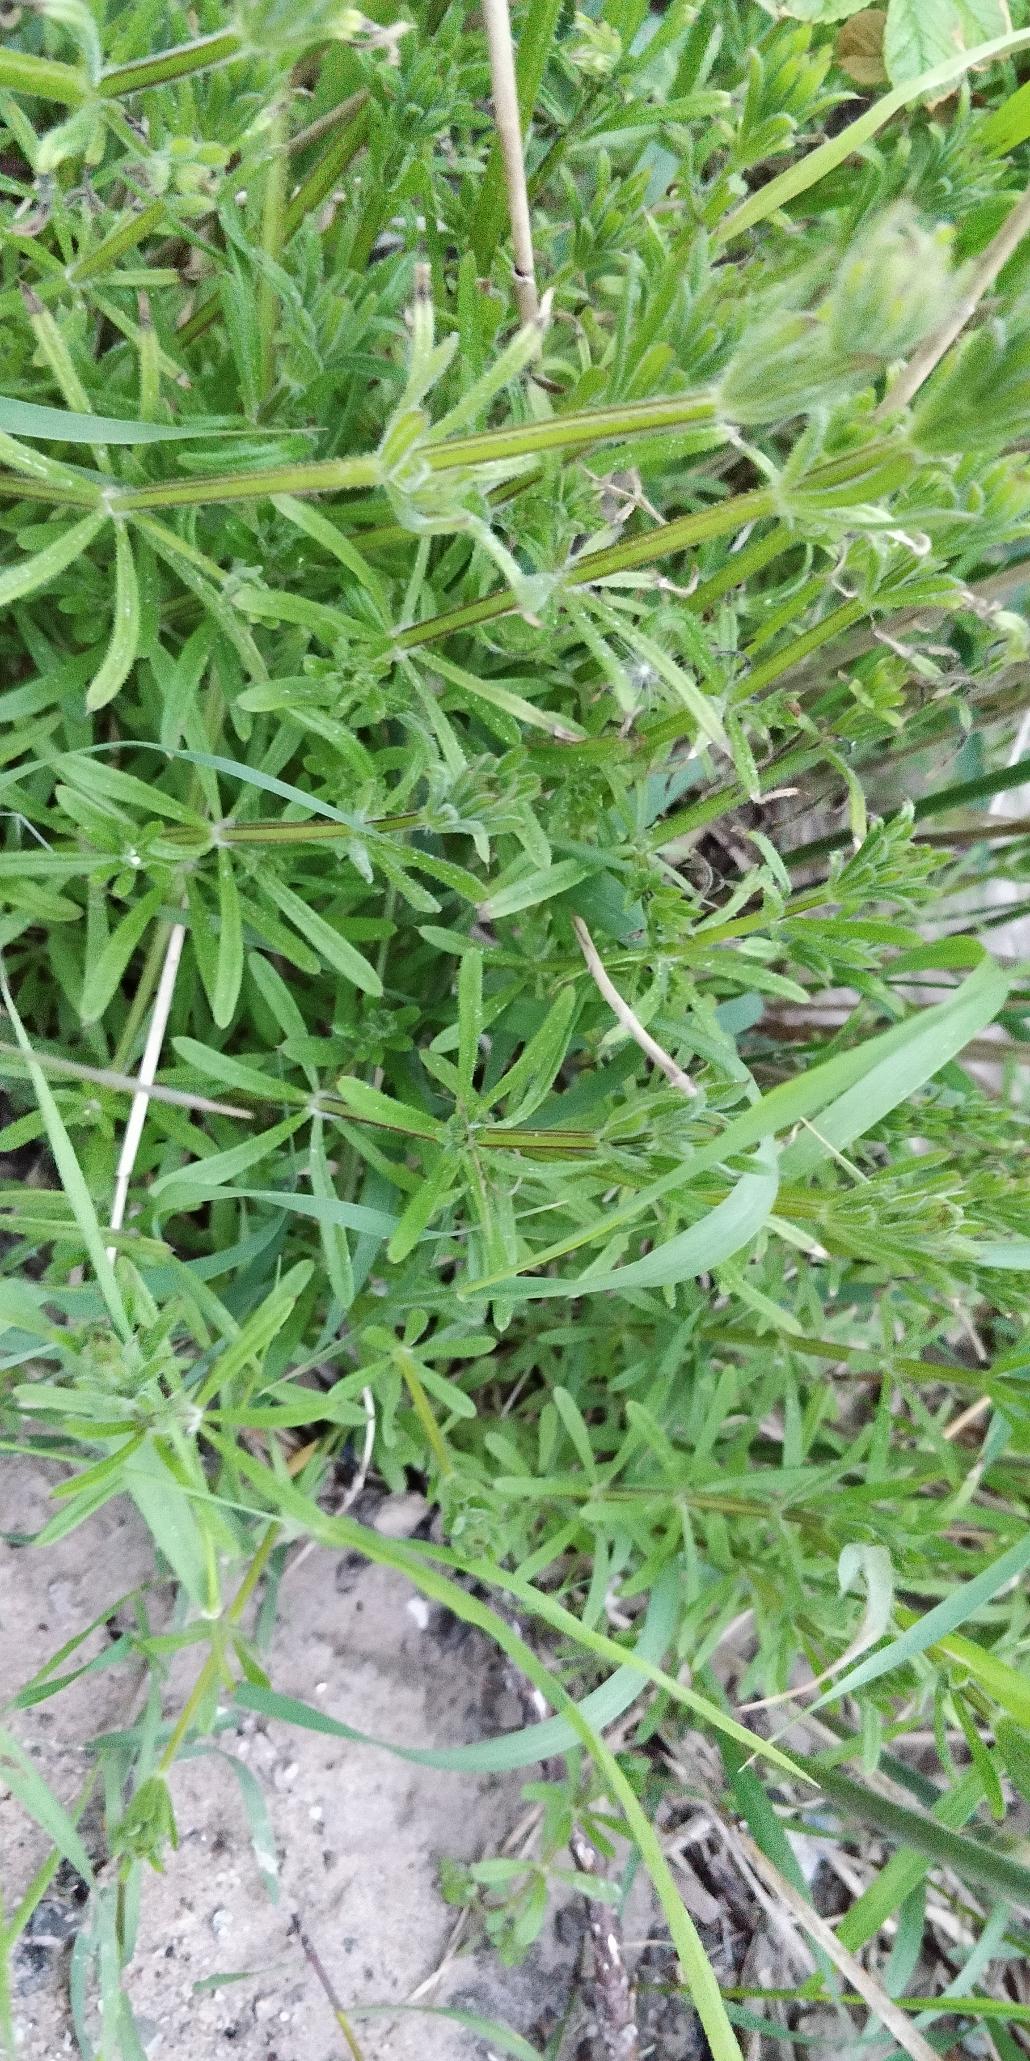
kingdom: Plantae
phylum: Tracheophyta
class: Magnoliopsida
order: Gentianales
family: Rubiaceae
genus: Galium
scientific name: Galium aparine
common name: Burre-snerre
